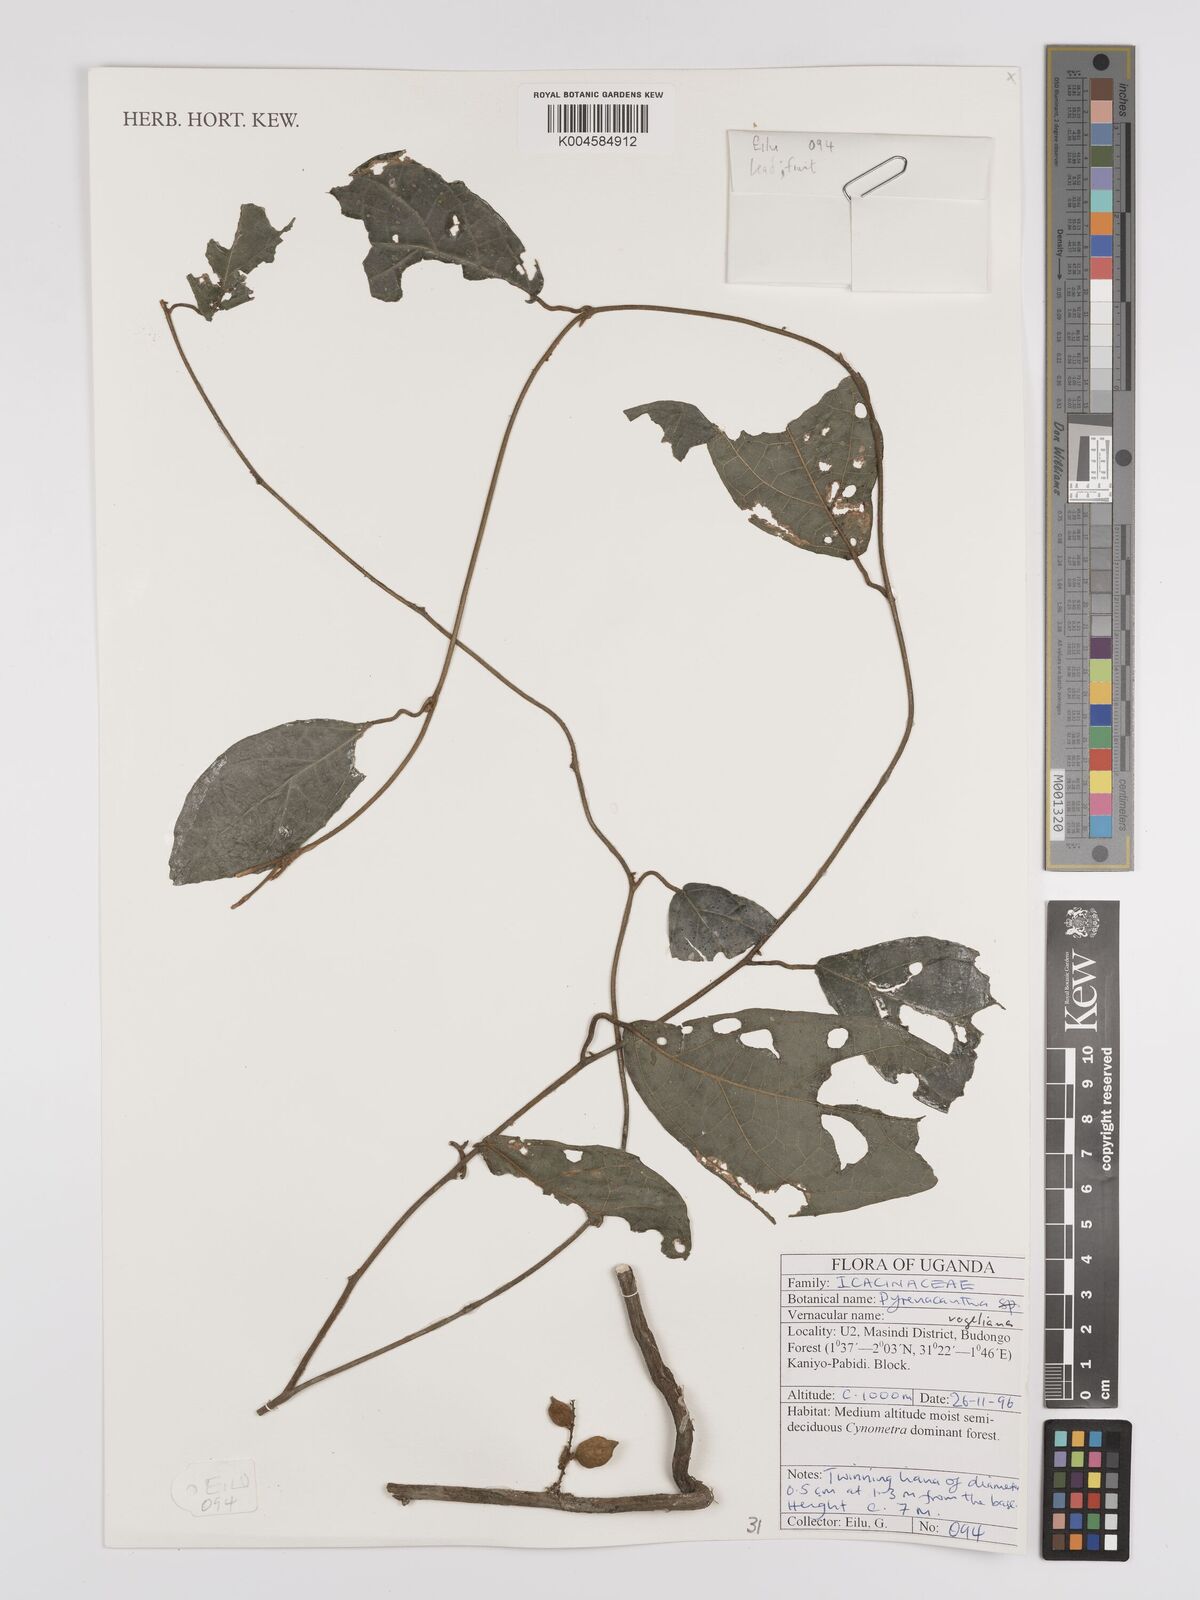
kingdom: Plantae
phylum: Tracheophyta
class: Magnoliopsida
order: Icacinales
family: Icacinaceae
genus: Pyrenacantha
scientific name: Pyrenacantha vogeliana
